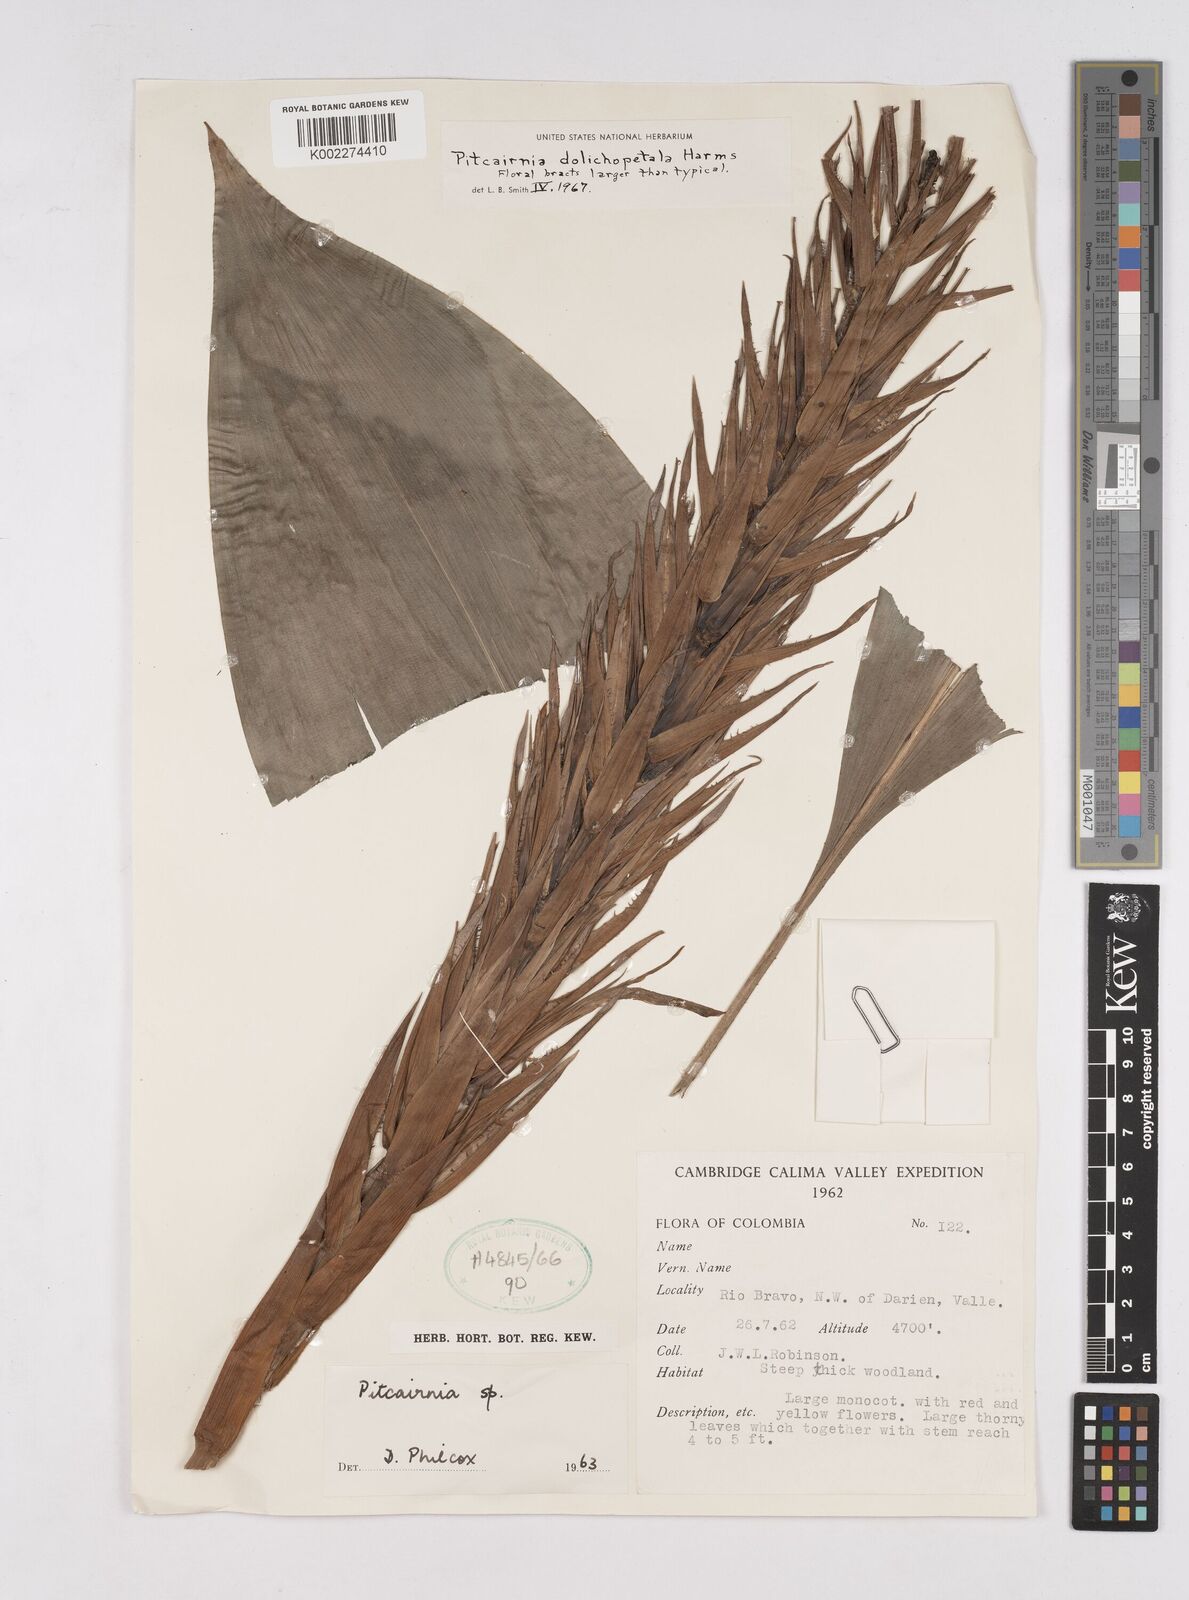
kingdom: Plantae
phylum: Tracheophyta
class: Liliopsida
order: Poales
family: Bromeliaceae
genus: Pitcairnia
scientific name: Pitcairnia dolichopetala
